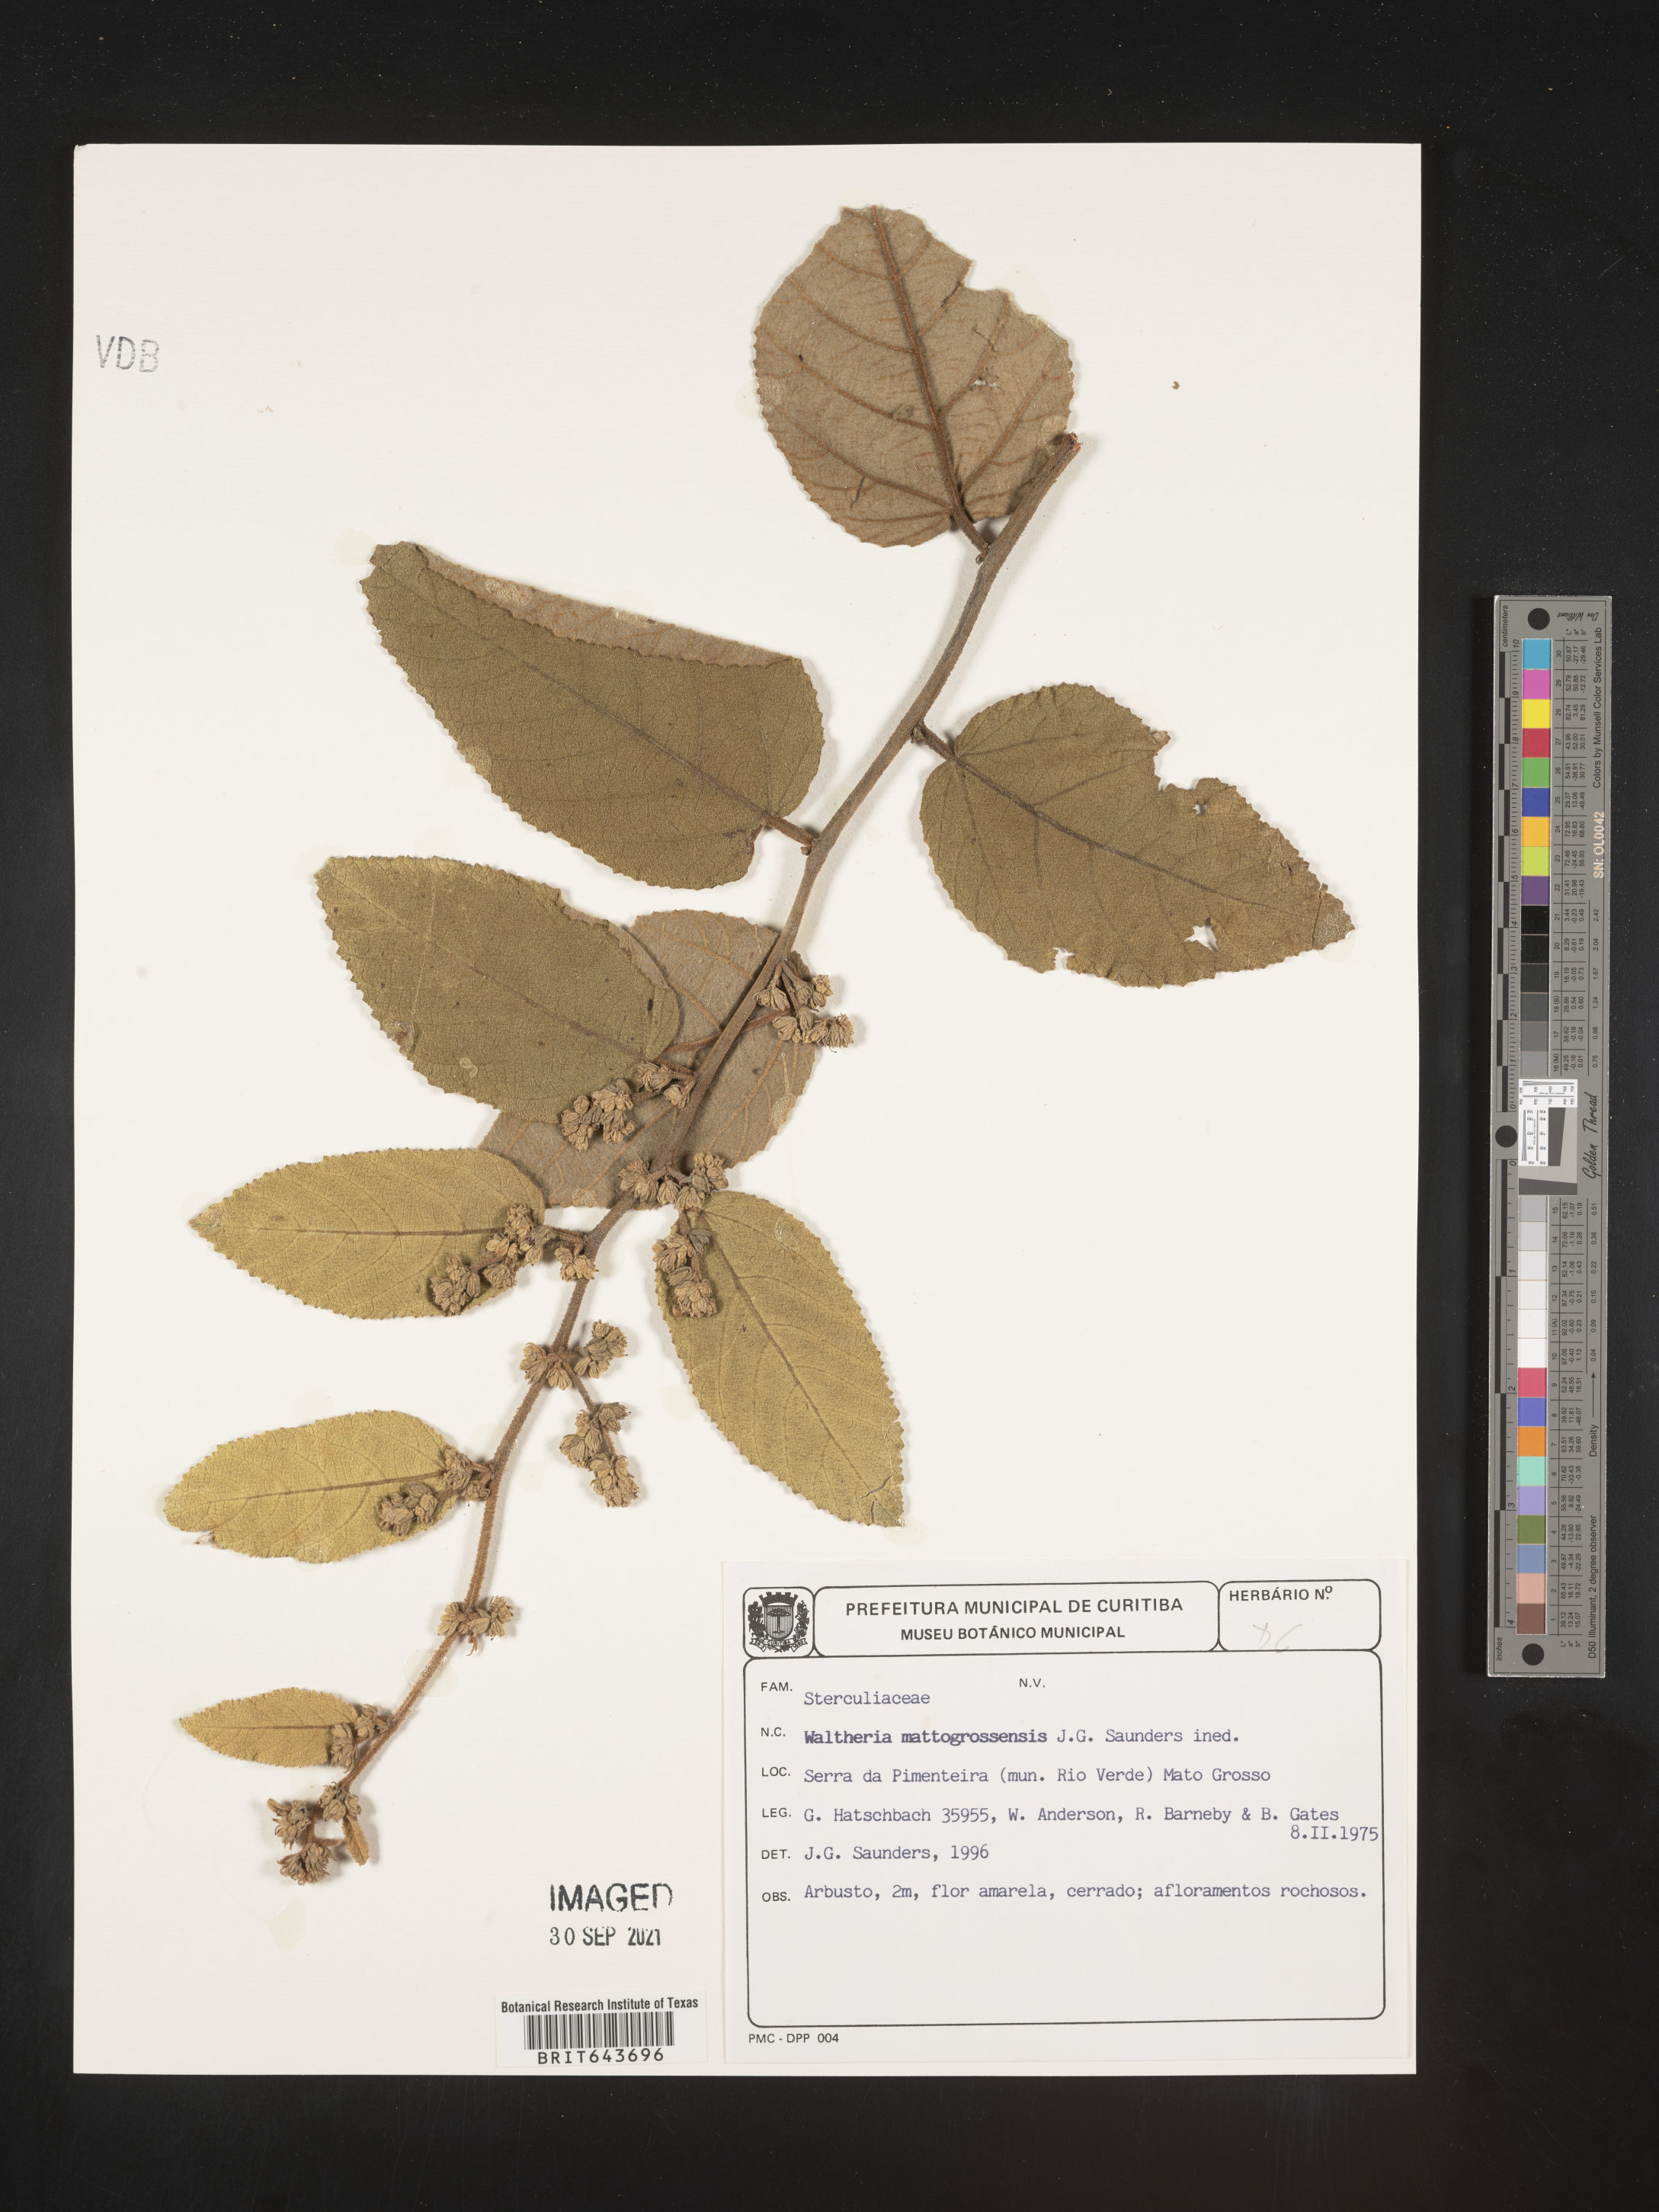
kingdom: Plantae
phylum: Tracheophyta
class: Magnoliopsida
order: Malvales
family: Malvaceae
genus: Waltheria
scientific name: Waltheria
